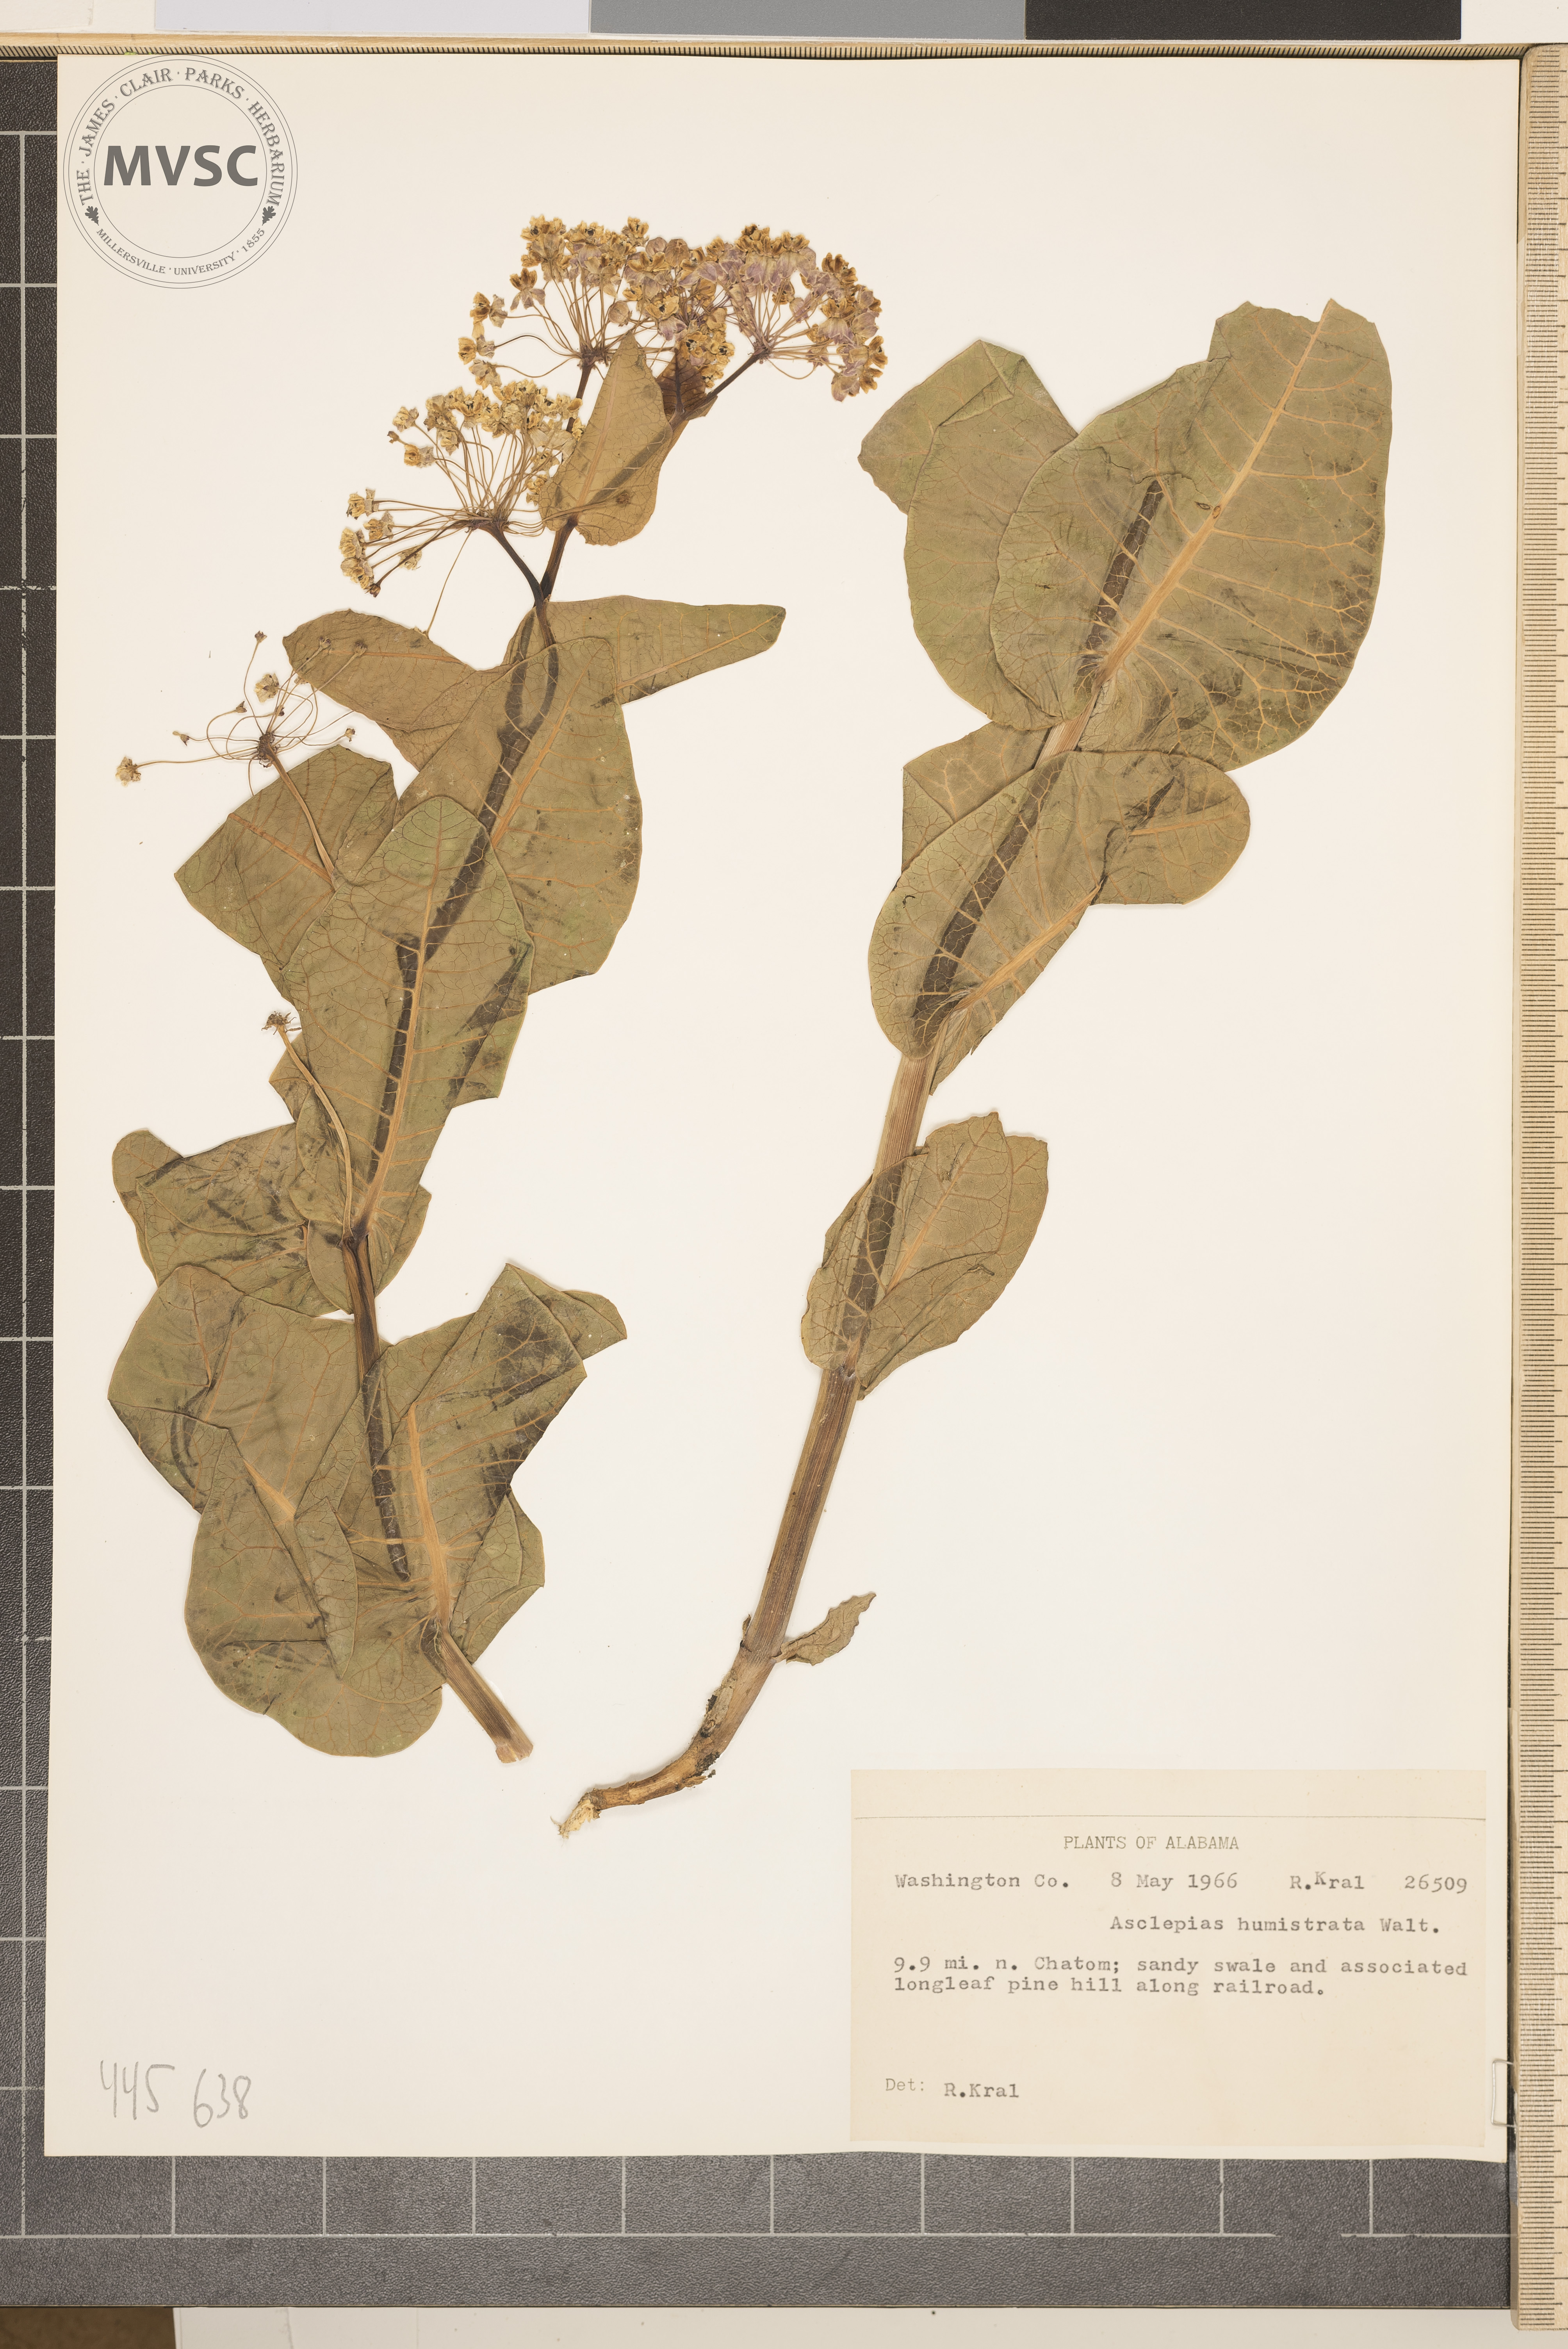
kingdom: Plantae
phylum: Tracheophyta
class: Magnoliopsida
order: Gentianales
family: Apocynaceae
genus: Asclepias
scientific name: Asclepias humistrata
